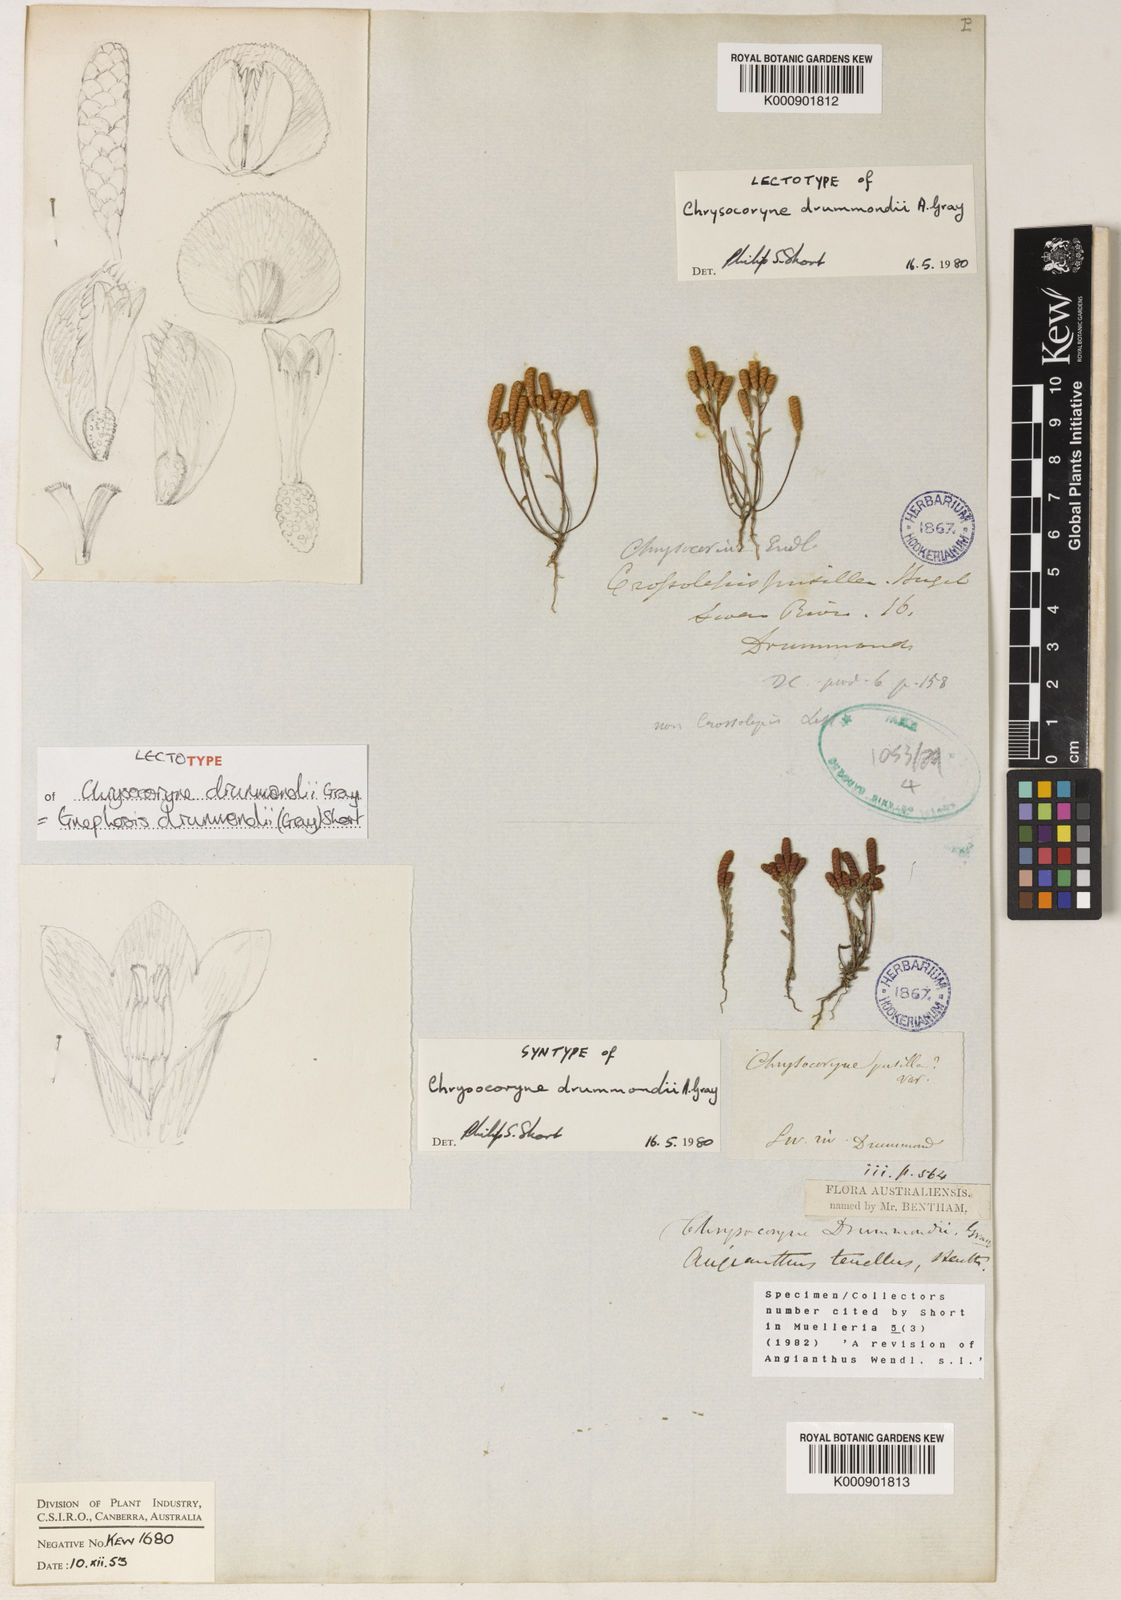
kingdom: Plantae
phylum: Tracheophyta
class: Magnoliopsida
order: Asterales
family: Asteraceae
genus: Gnephosis
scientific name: Gnephosis drummondii
